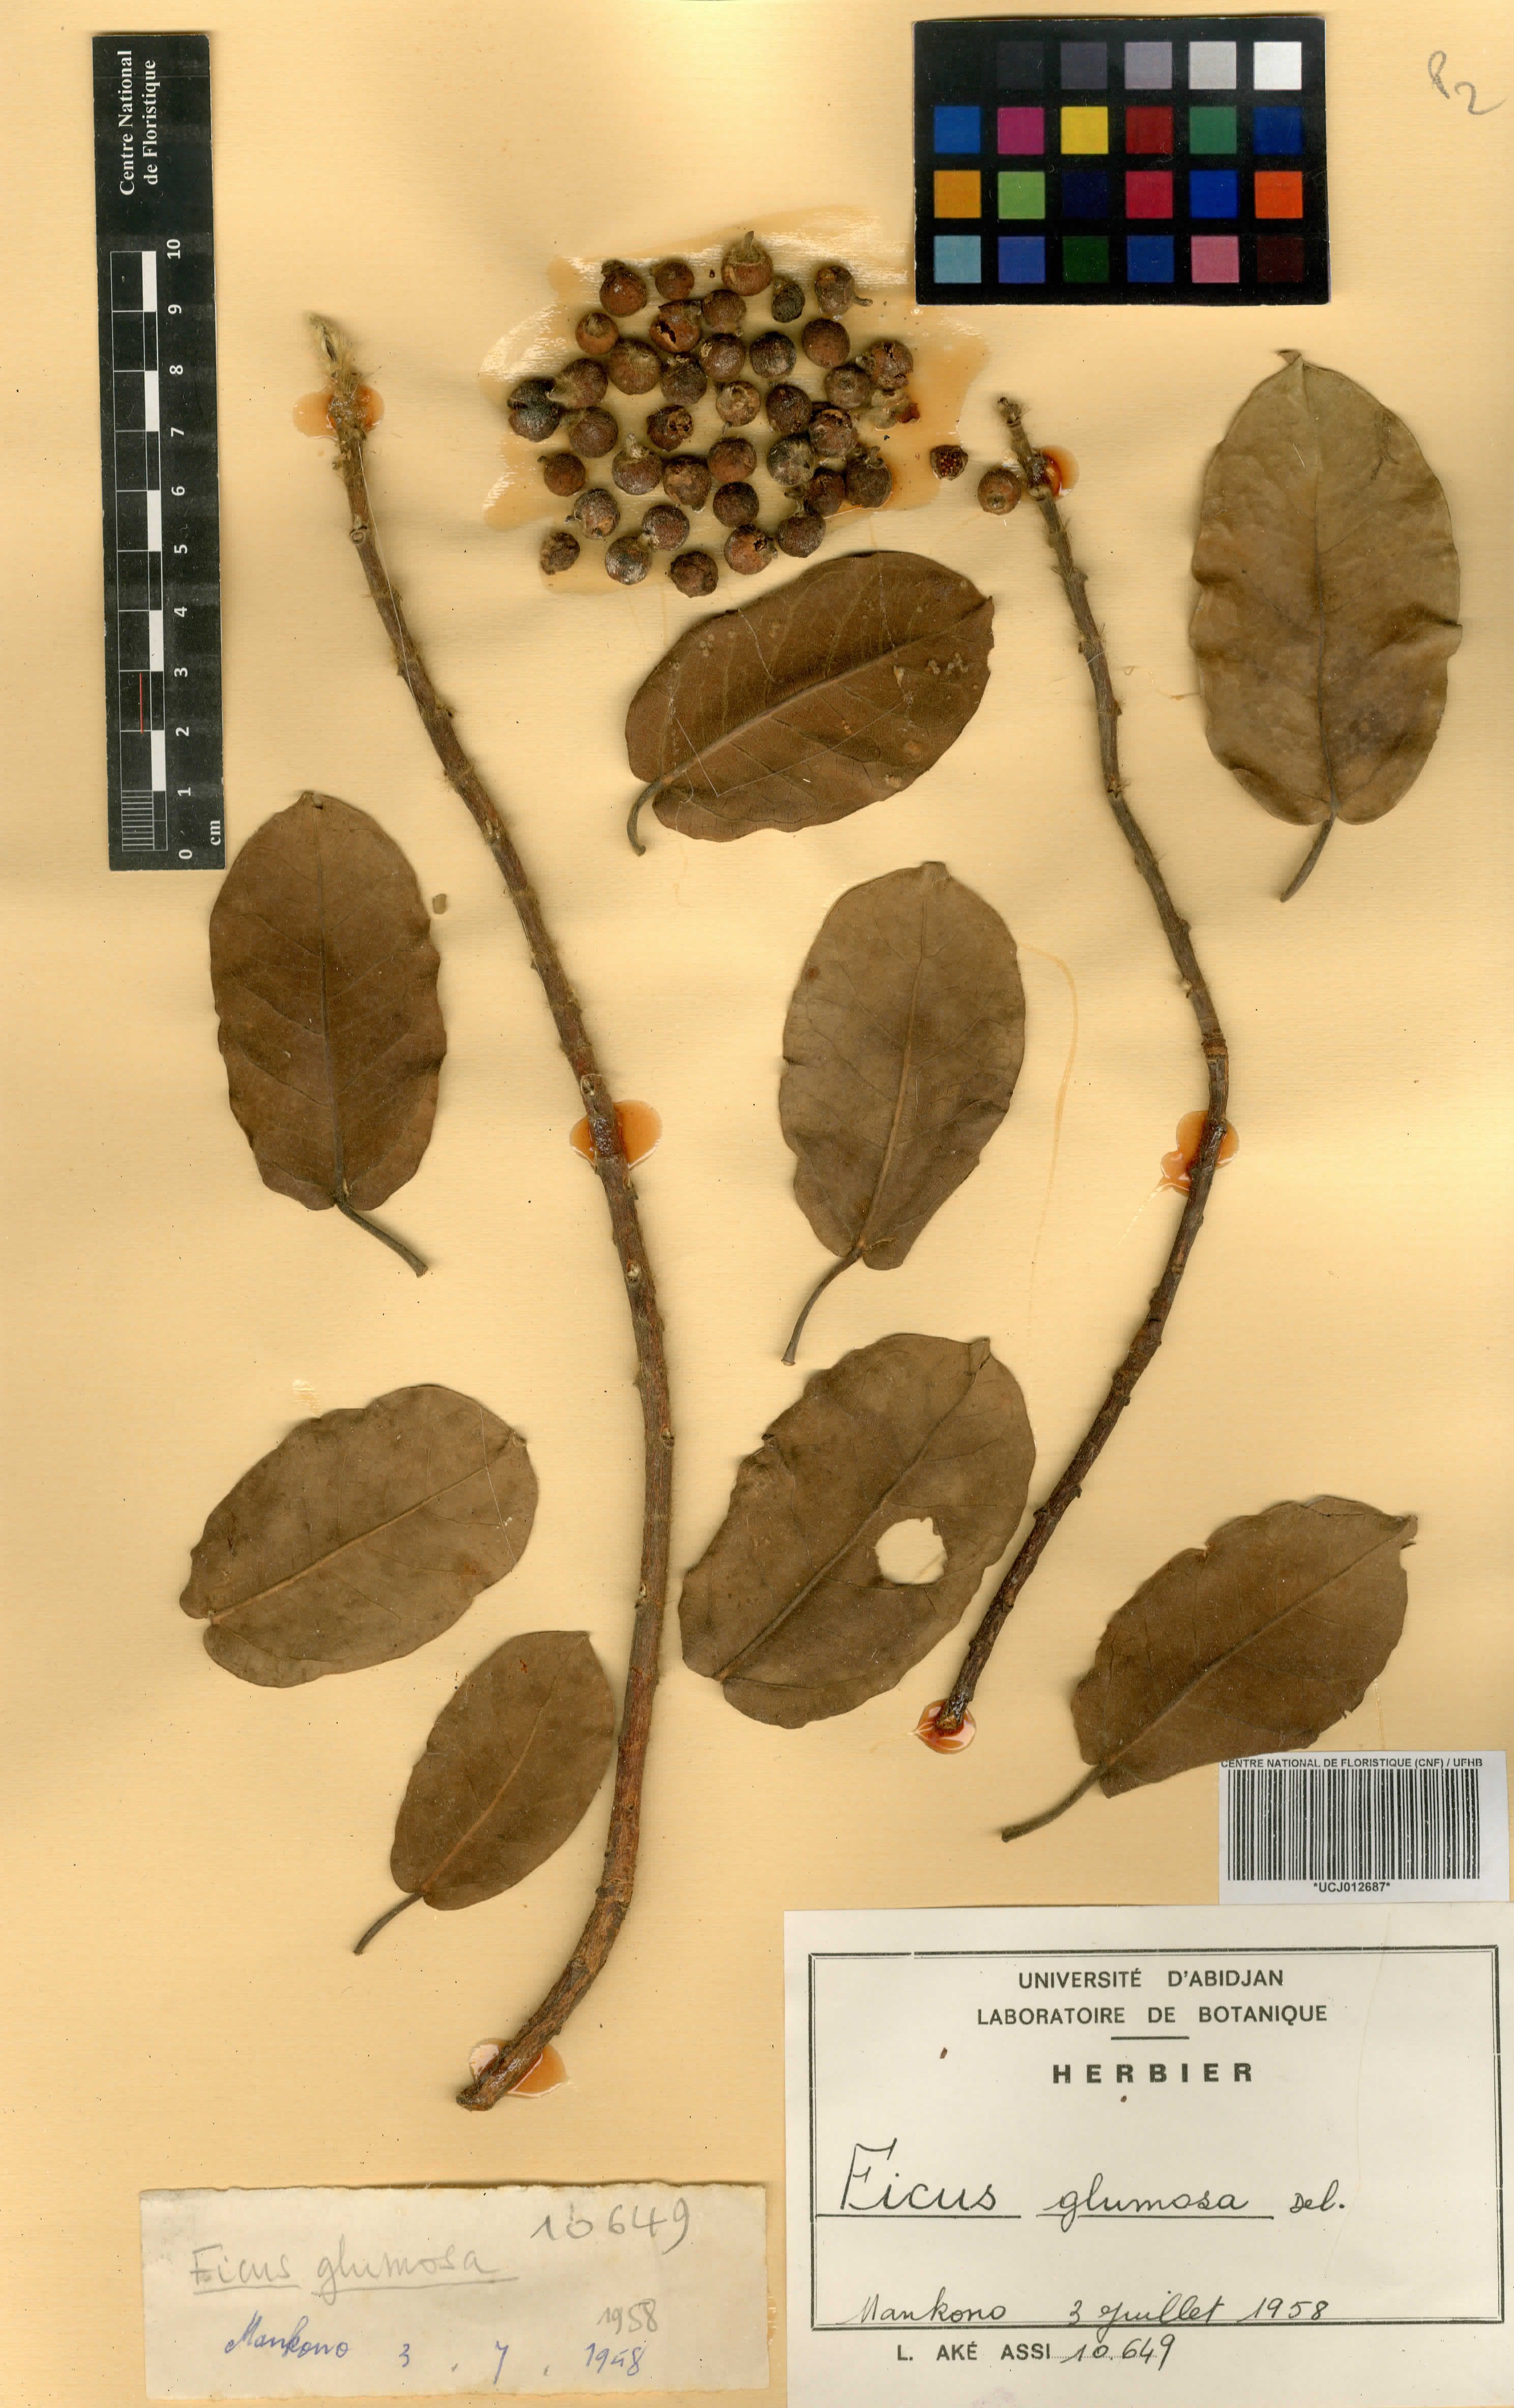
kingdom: Plantae
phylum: Tracheophyta
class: Magnoliopsida
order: Rosales
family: Moraceae
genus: Ficus
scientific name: Ficus glumosa
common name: Hairy rock fig
